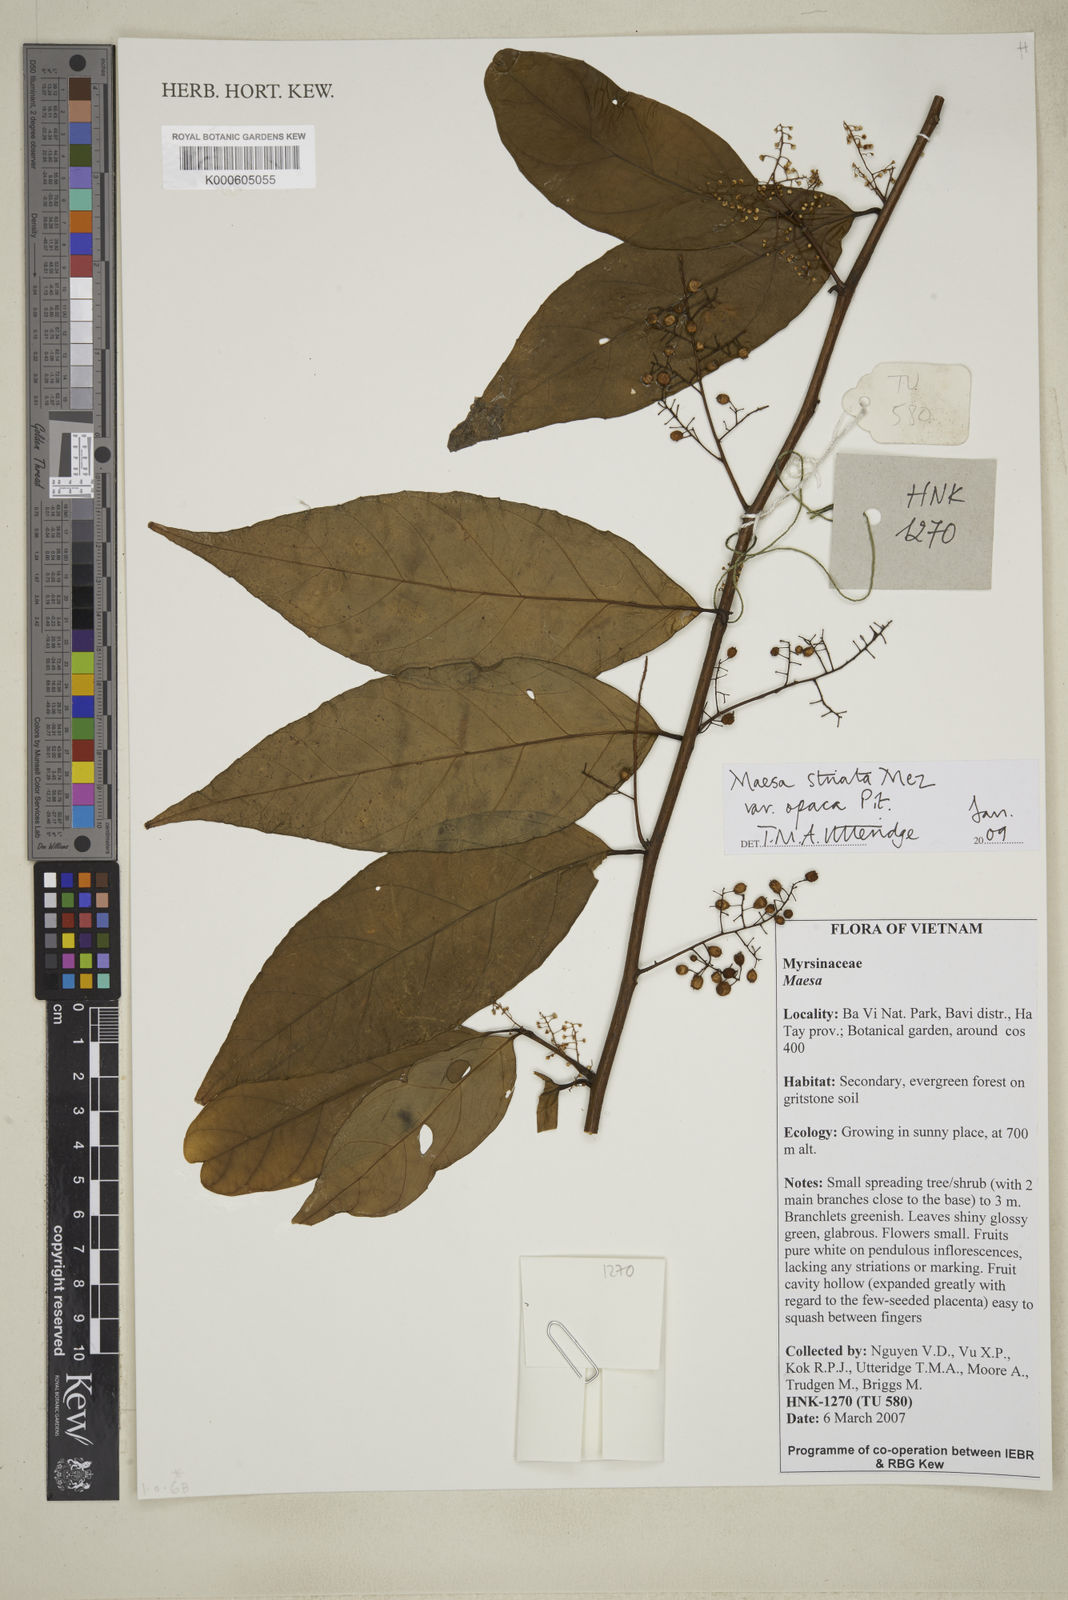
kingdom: Plantae
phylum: Tracheophyta
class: Magnoliopsida
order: Ericales
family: Primulaceae
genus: Maesa
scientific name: Maesa striata
